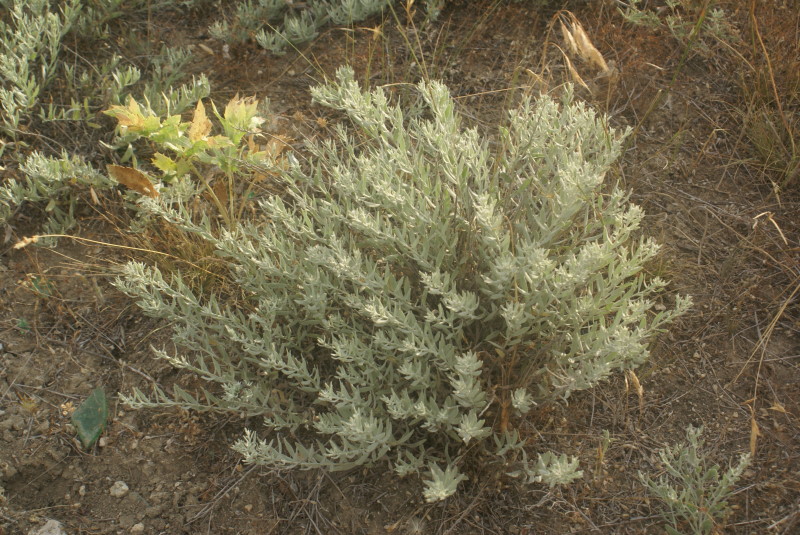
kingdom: Plantae
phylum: Tracheophyta
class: Magnoliopsida
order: Asterales
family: Asteraceae
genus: Artemisia
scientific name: Artemisia
